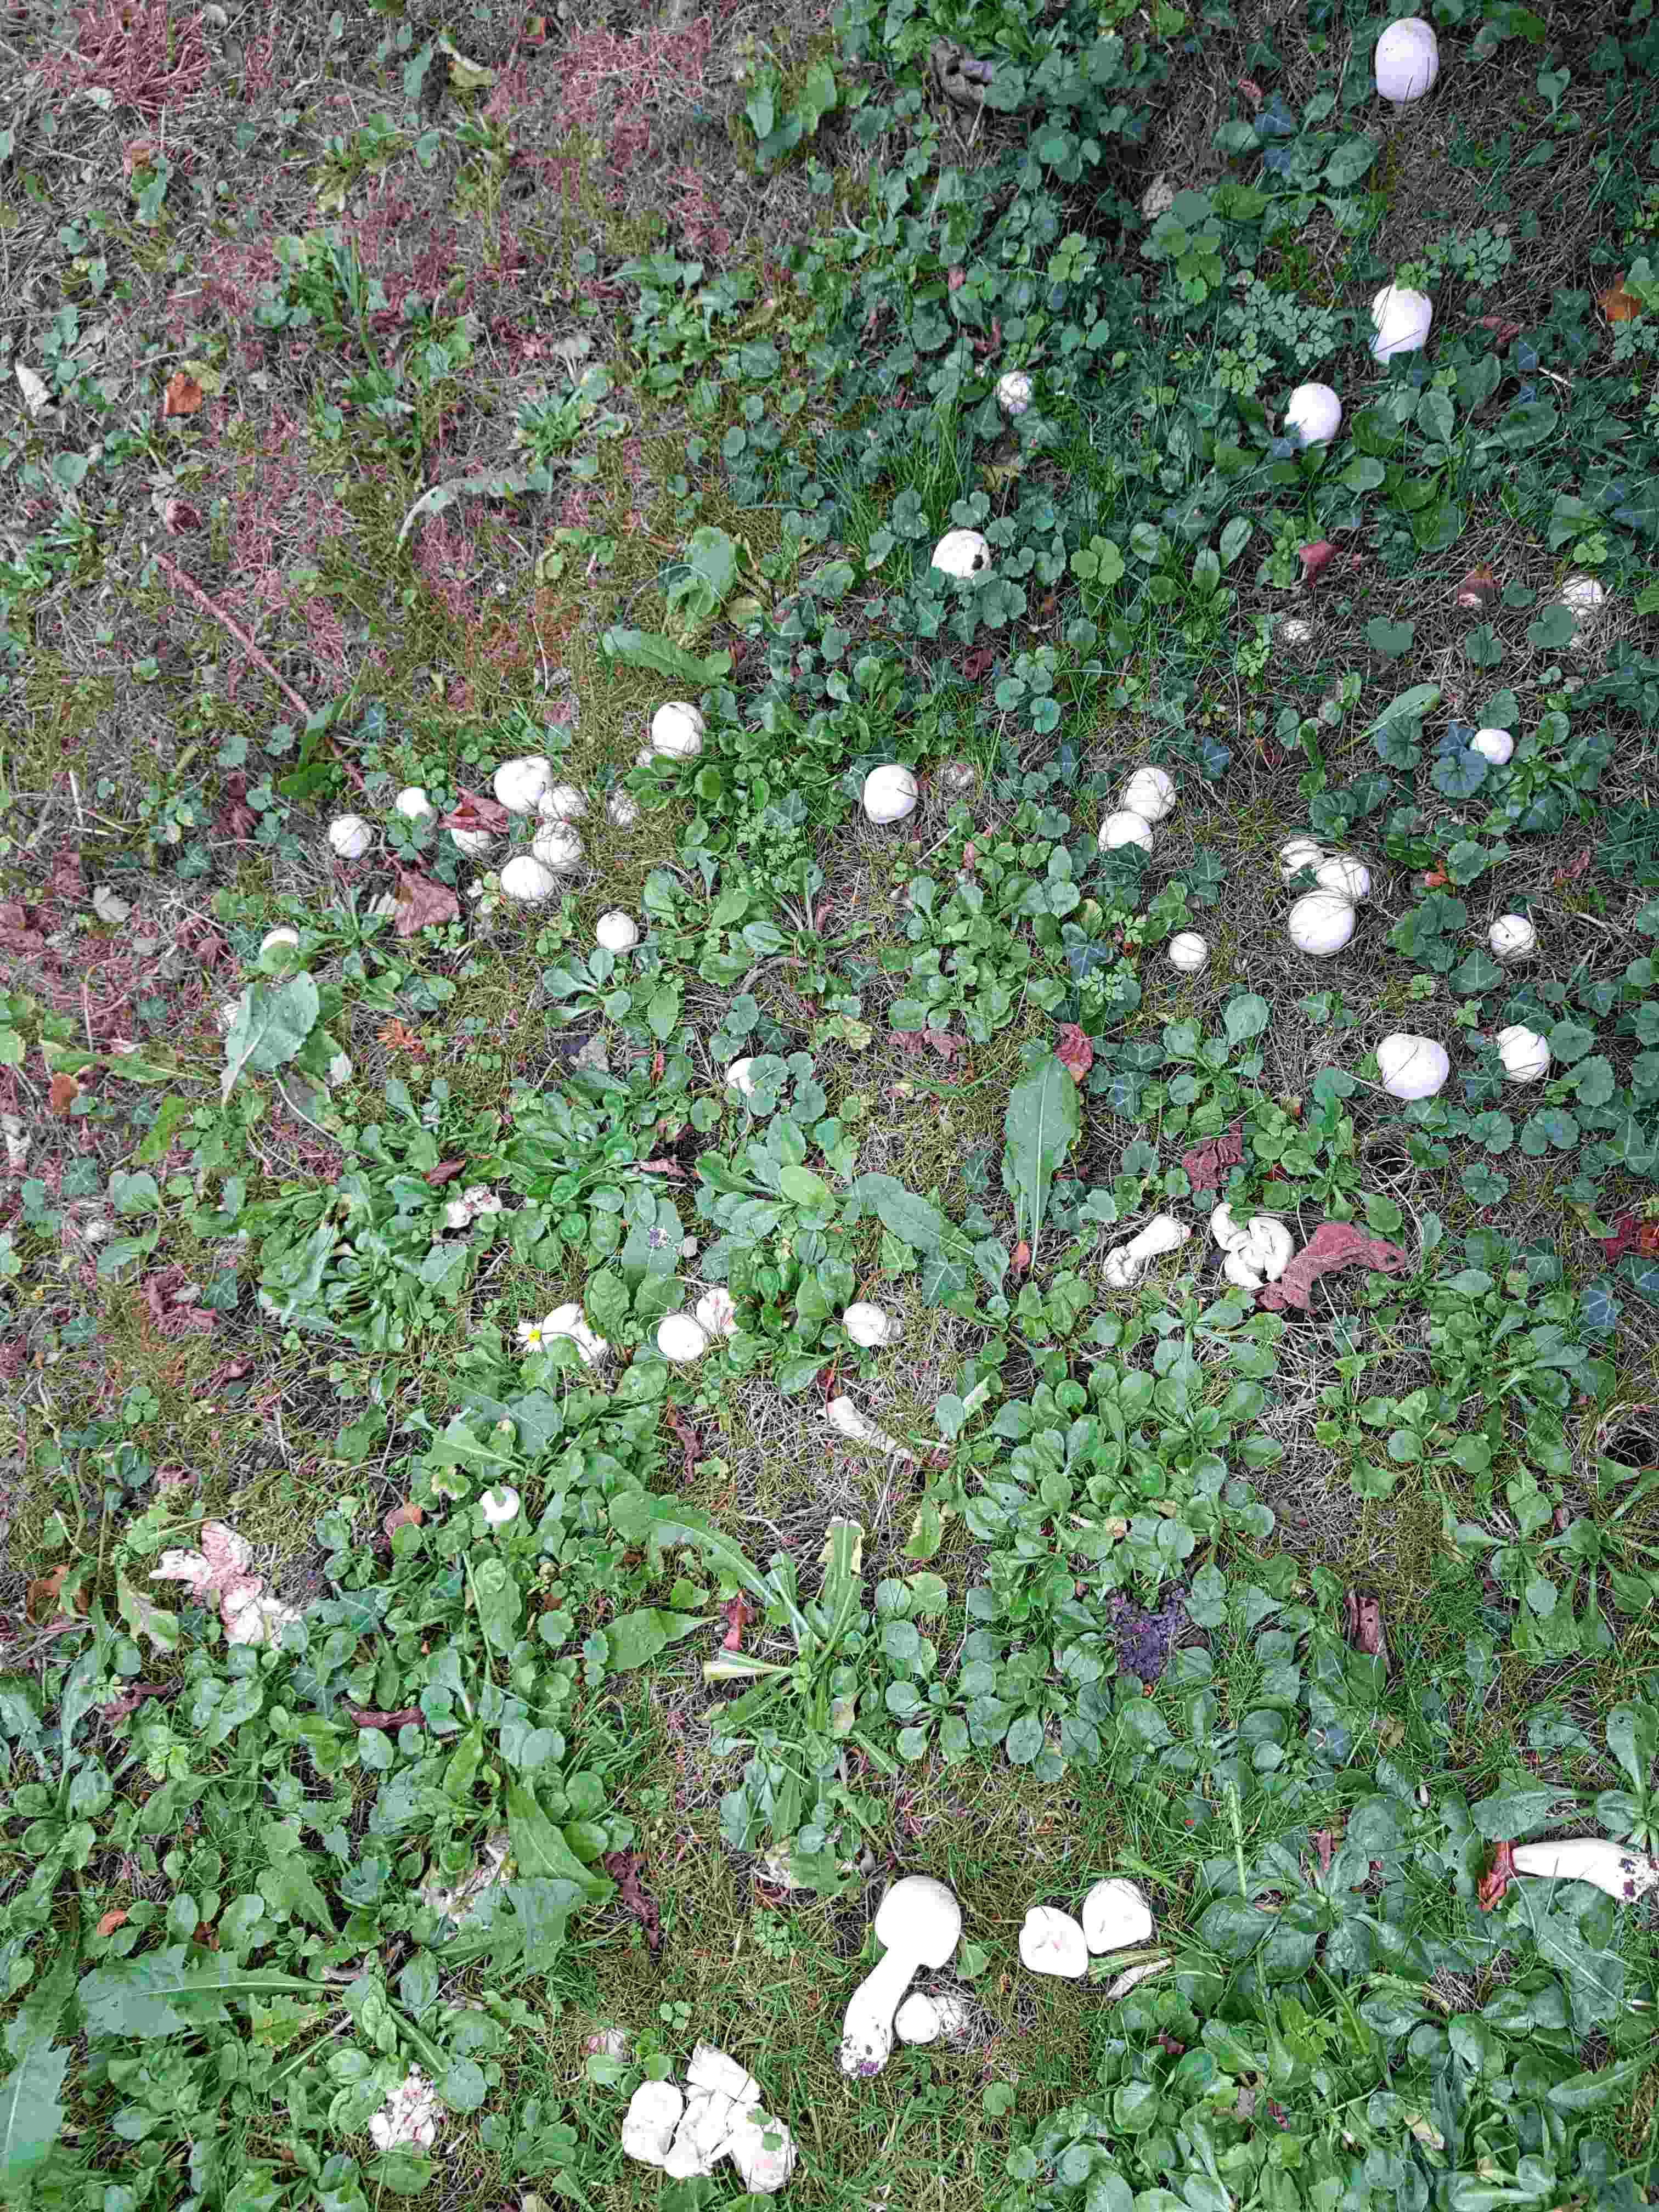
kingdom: Fungi
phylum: Basidiomycota
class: Agaricomycetes
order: Agaricales
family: Agaricaceae
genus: Agaricus
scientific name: Agaricus
